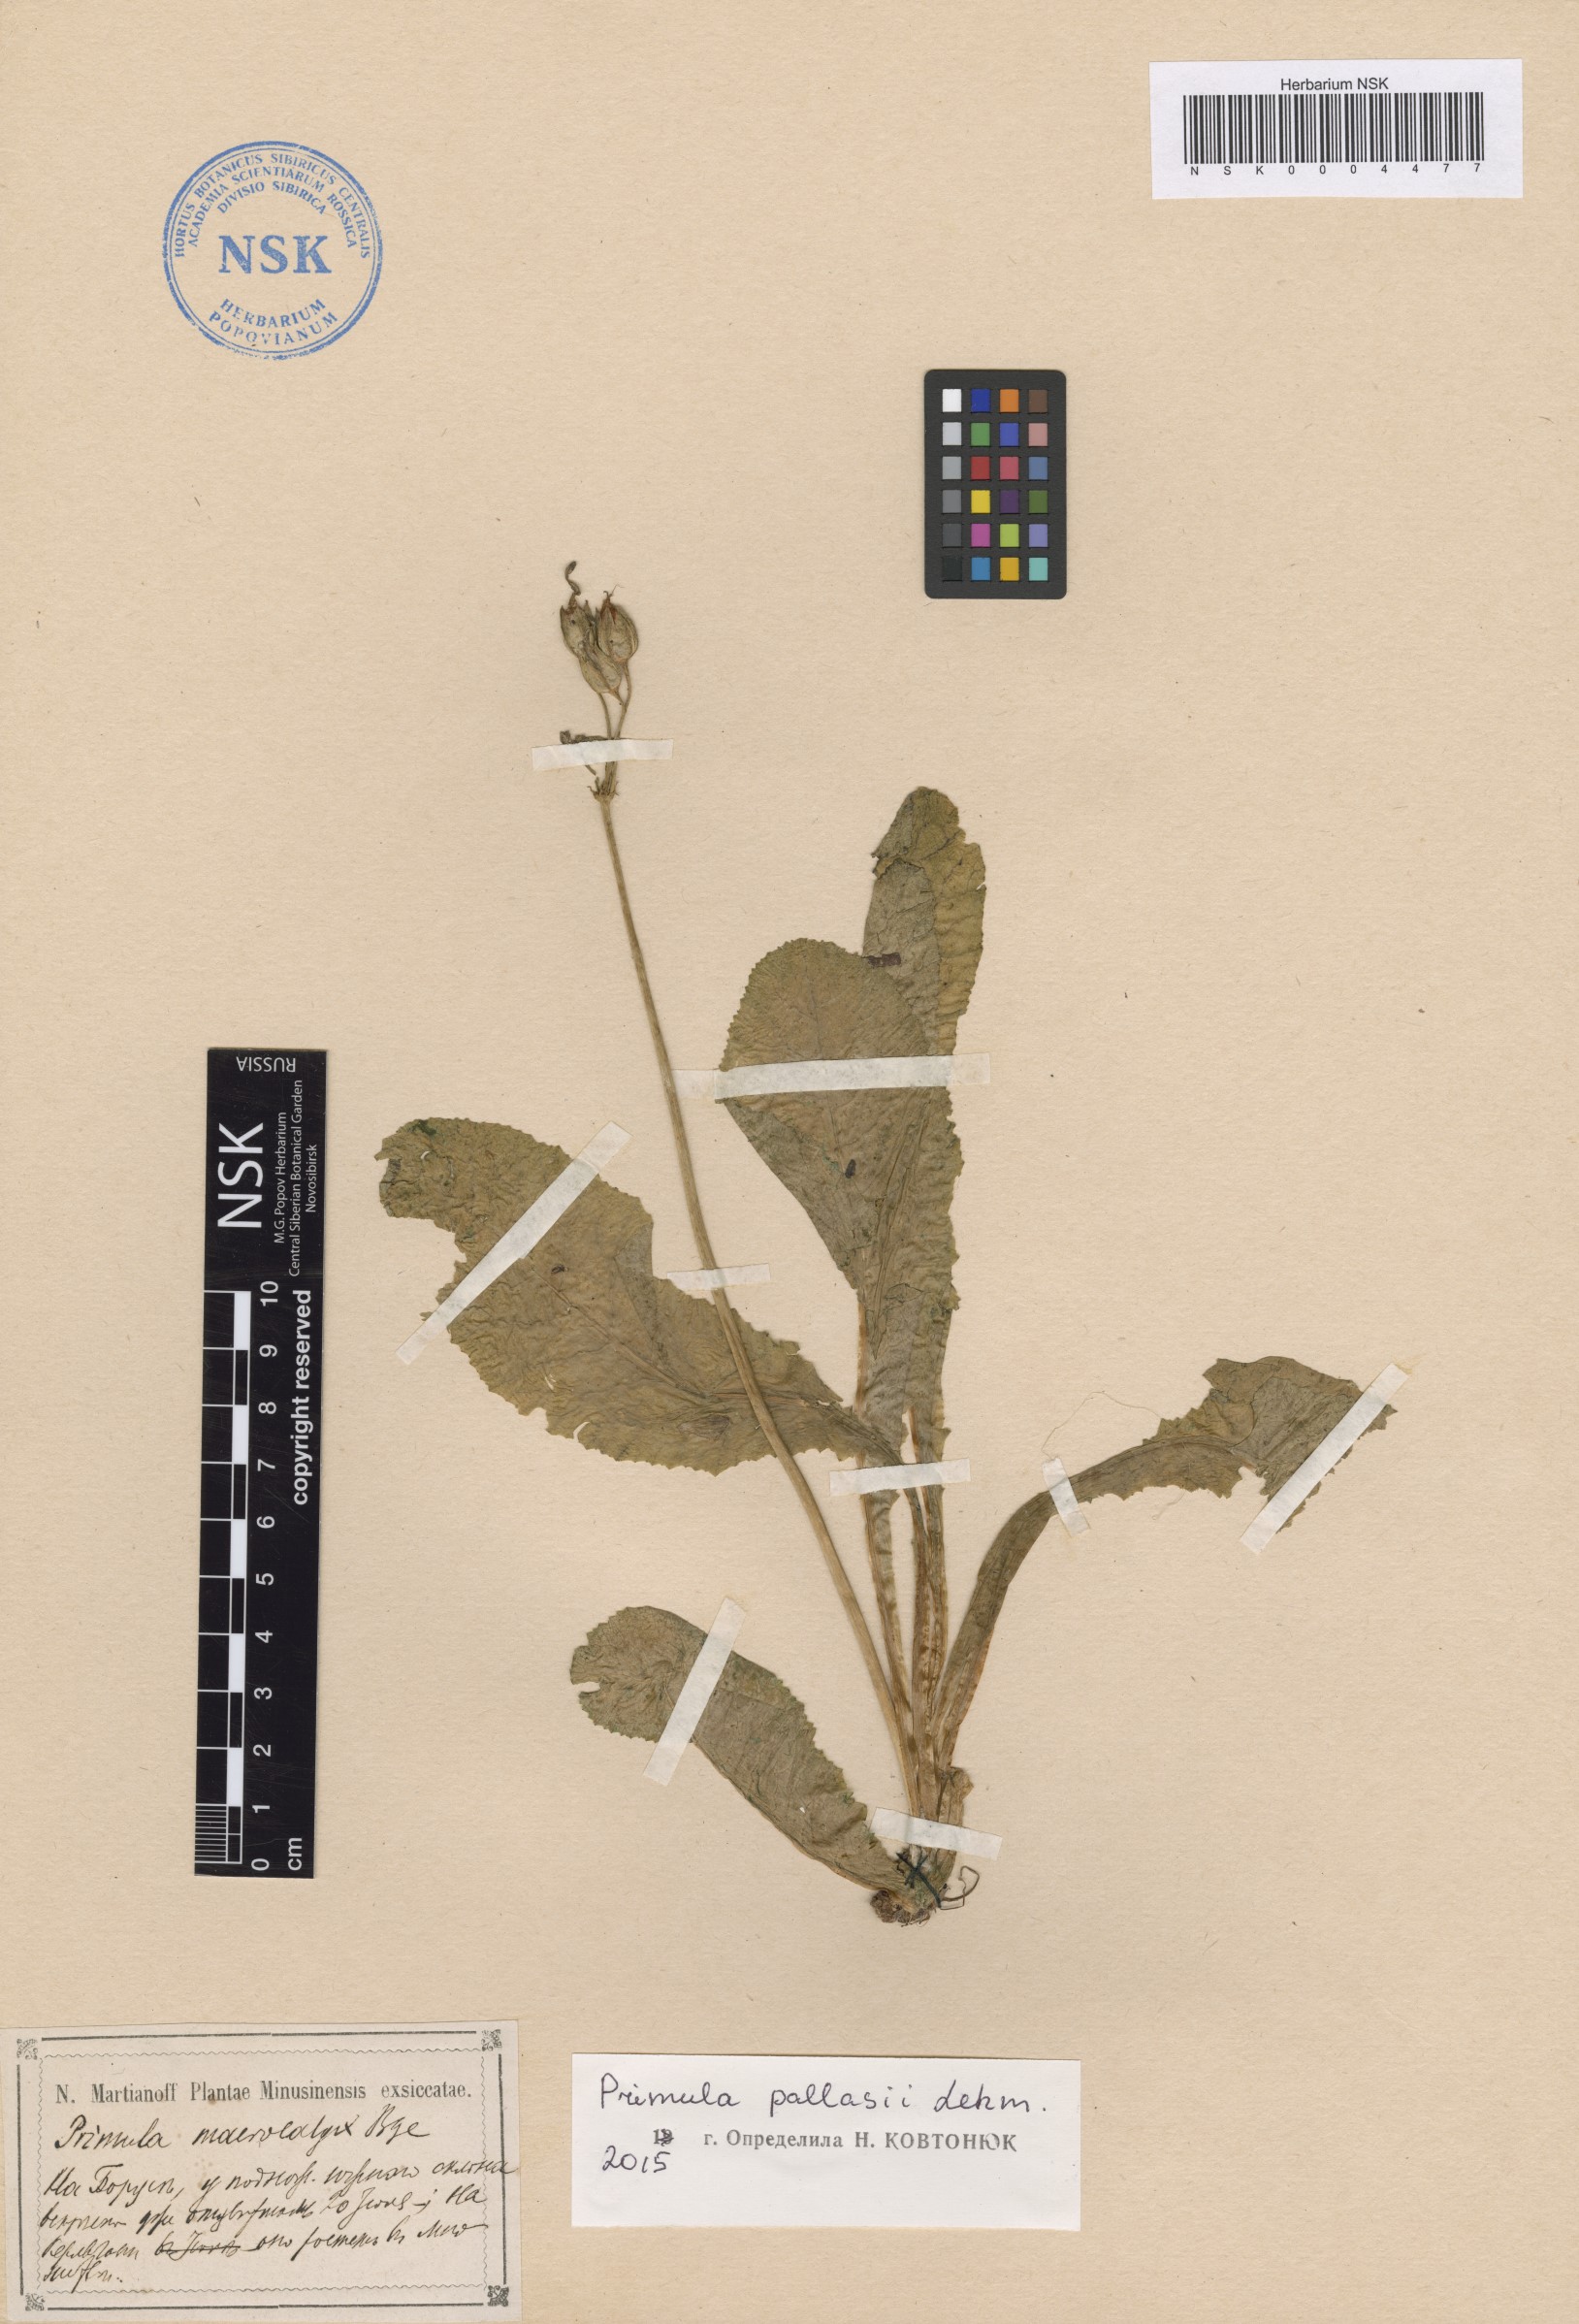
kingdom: Plantae
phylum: Tracheophyta
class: Magnoliopsida
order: Ericales
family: Primulaceae
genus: Primula
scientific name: Primula elatior
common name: Oxlip
